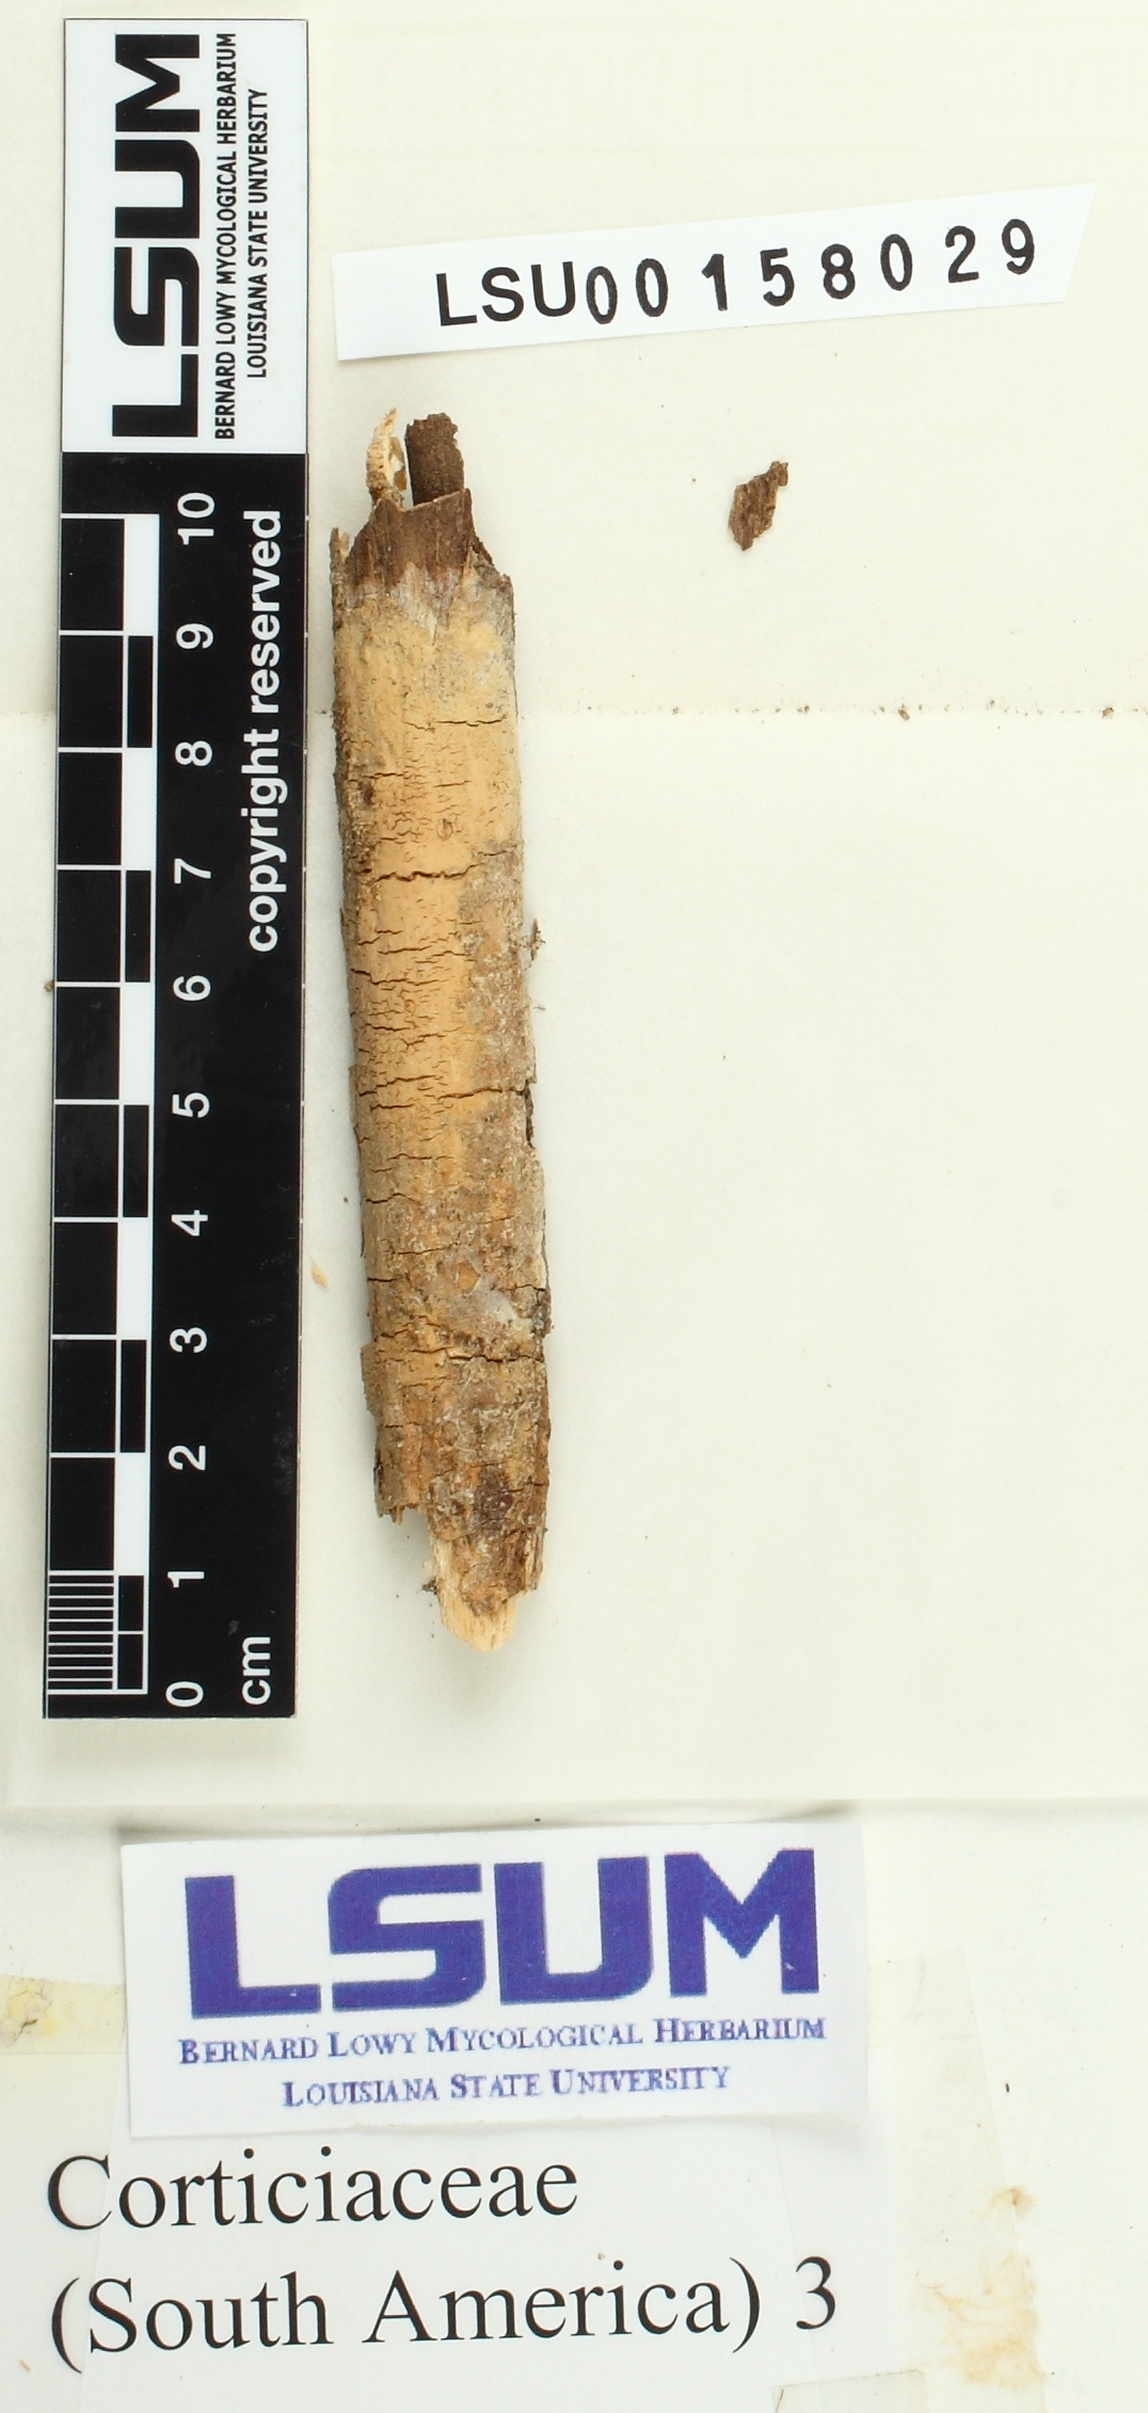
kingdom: Fungi
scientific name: Fungi
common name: Fungi
